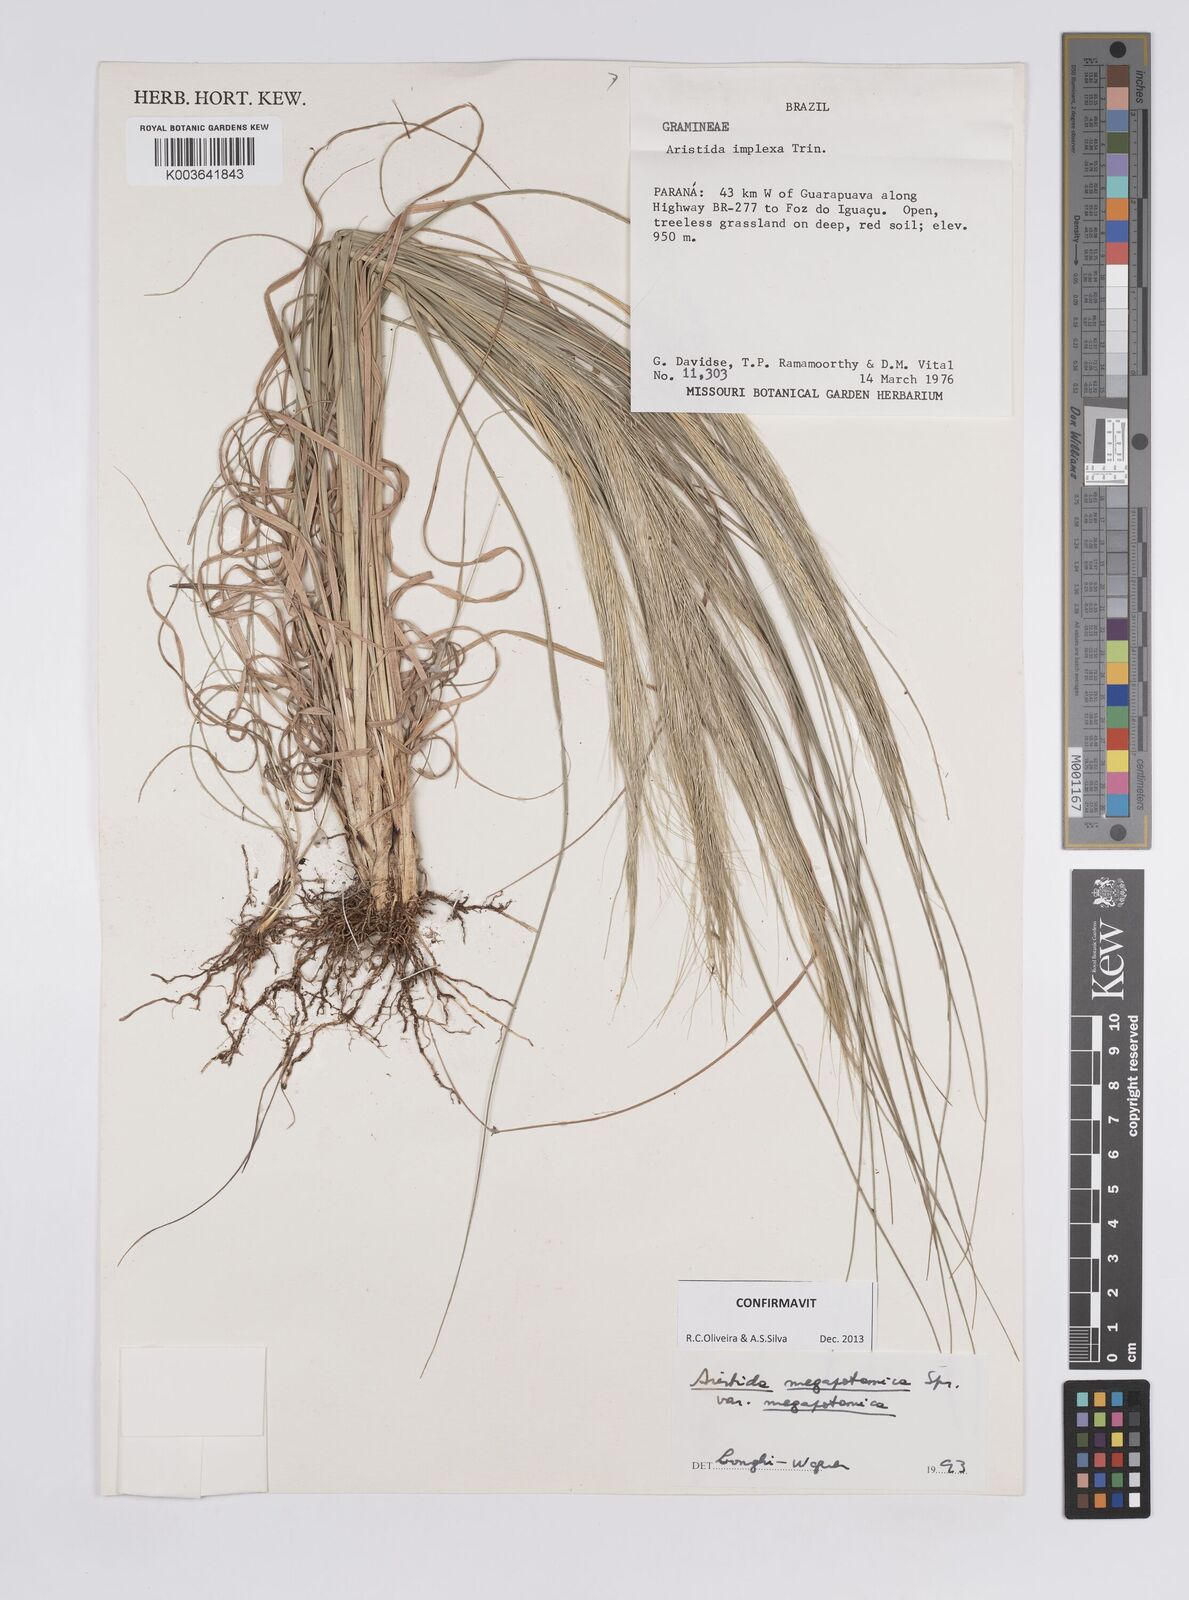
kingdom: Plantae
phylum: Tracheophyta
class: Liliopsida
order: Poales
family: Poaceae
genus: Aristida
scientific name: Aristida megapotamica
